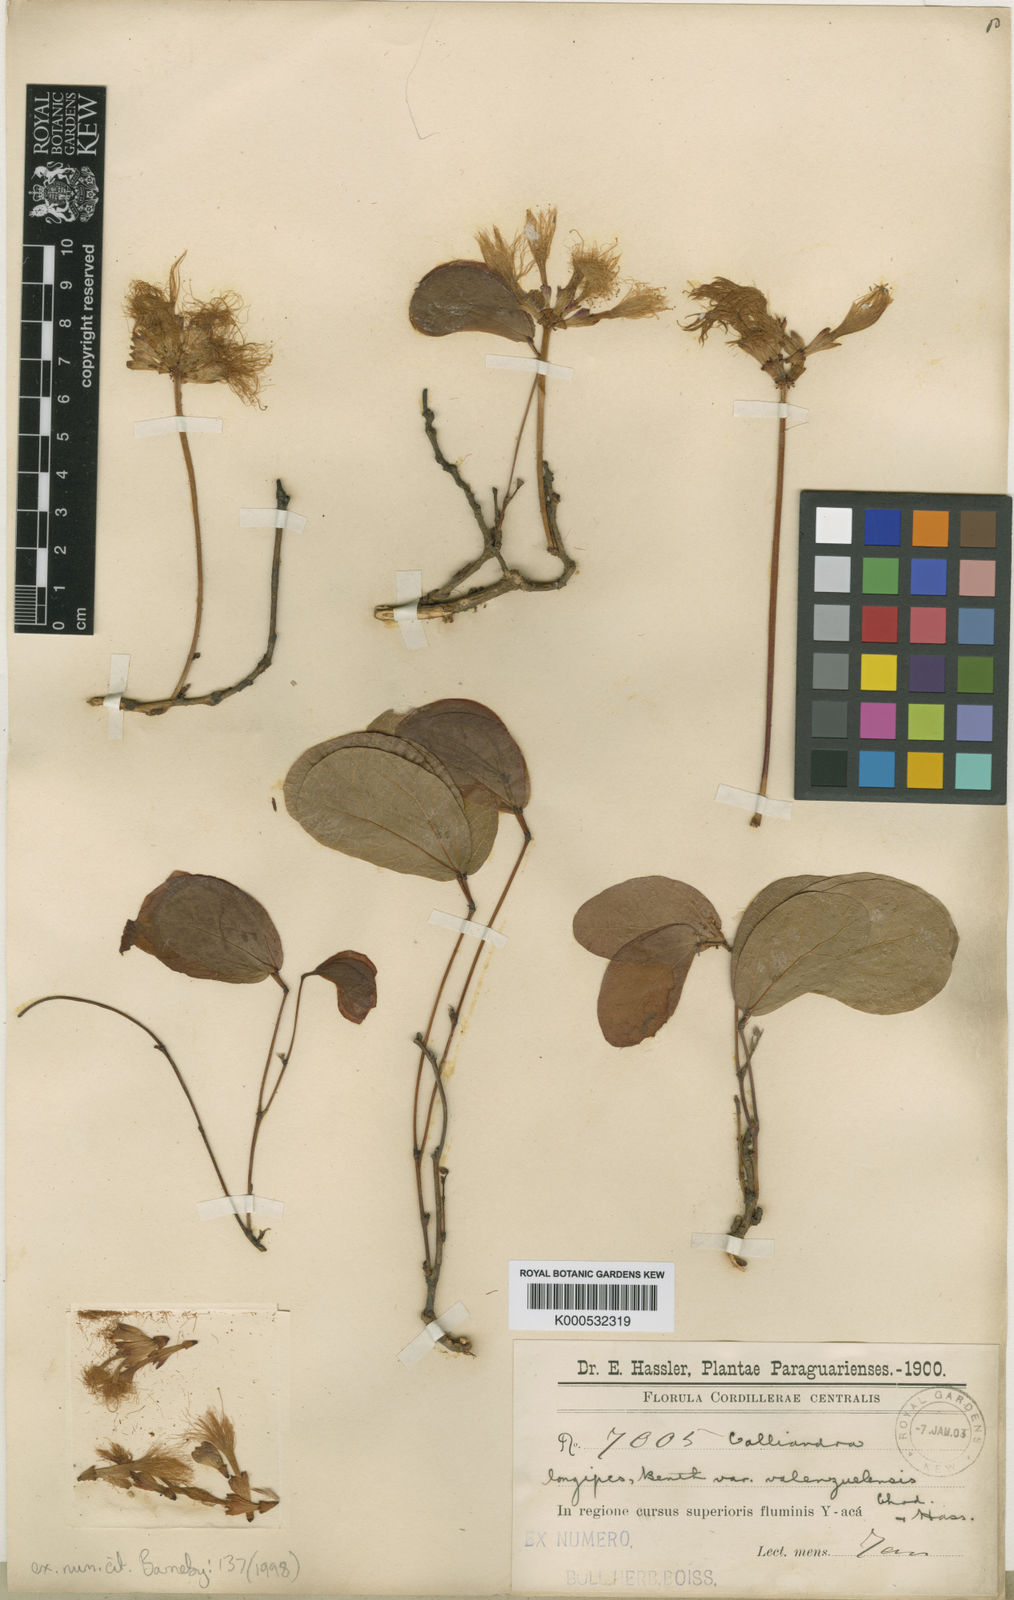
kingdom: Plantae
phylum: Tracheophyta
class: Magnoliopsida
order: Fabales
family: Fabaceae
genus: Calliandra
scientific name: Calliandra longipes
